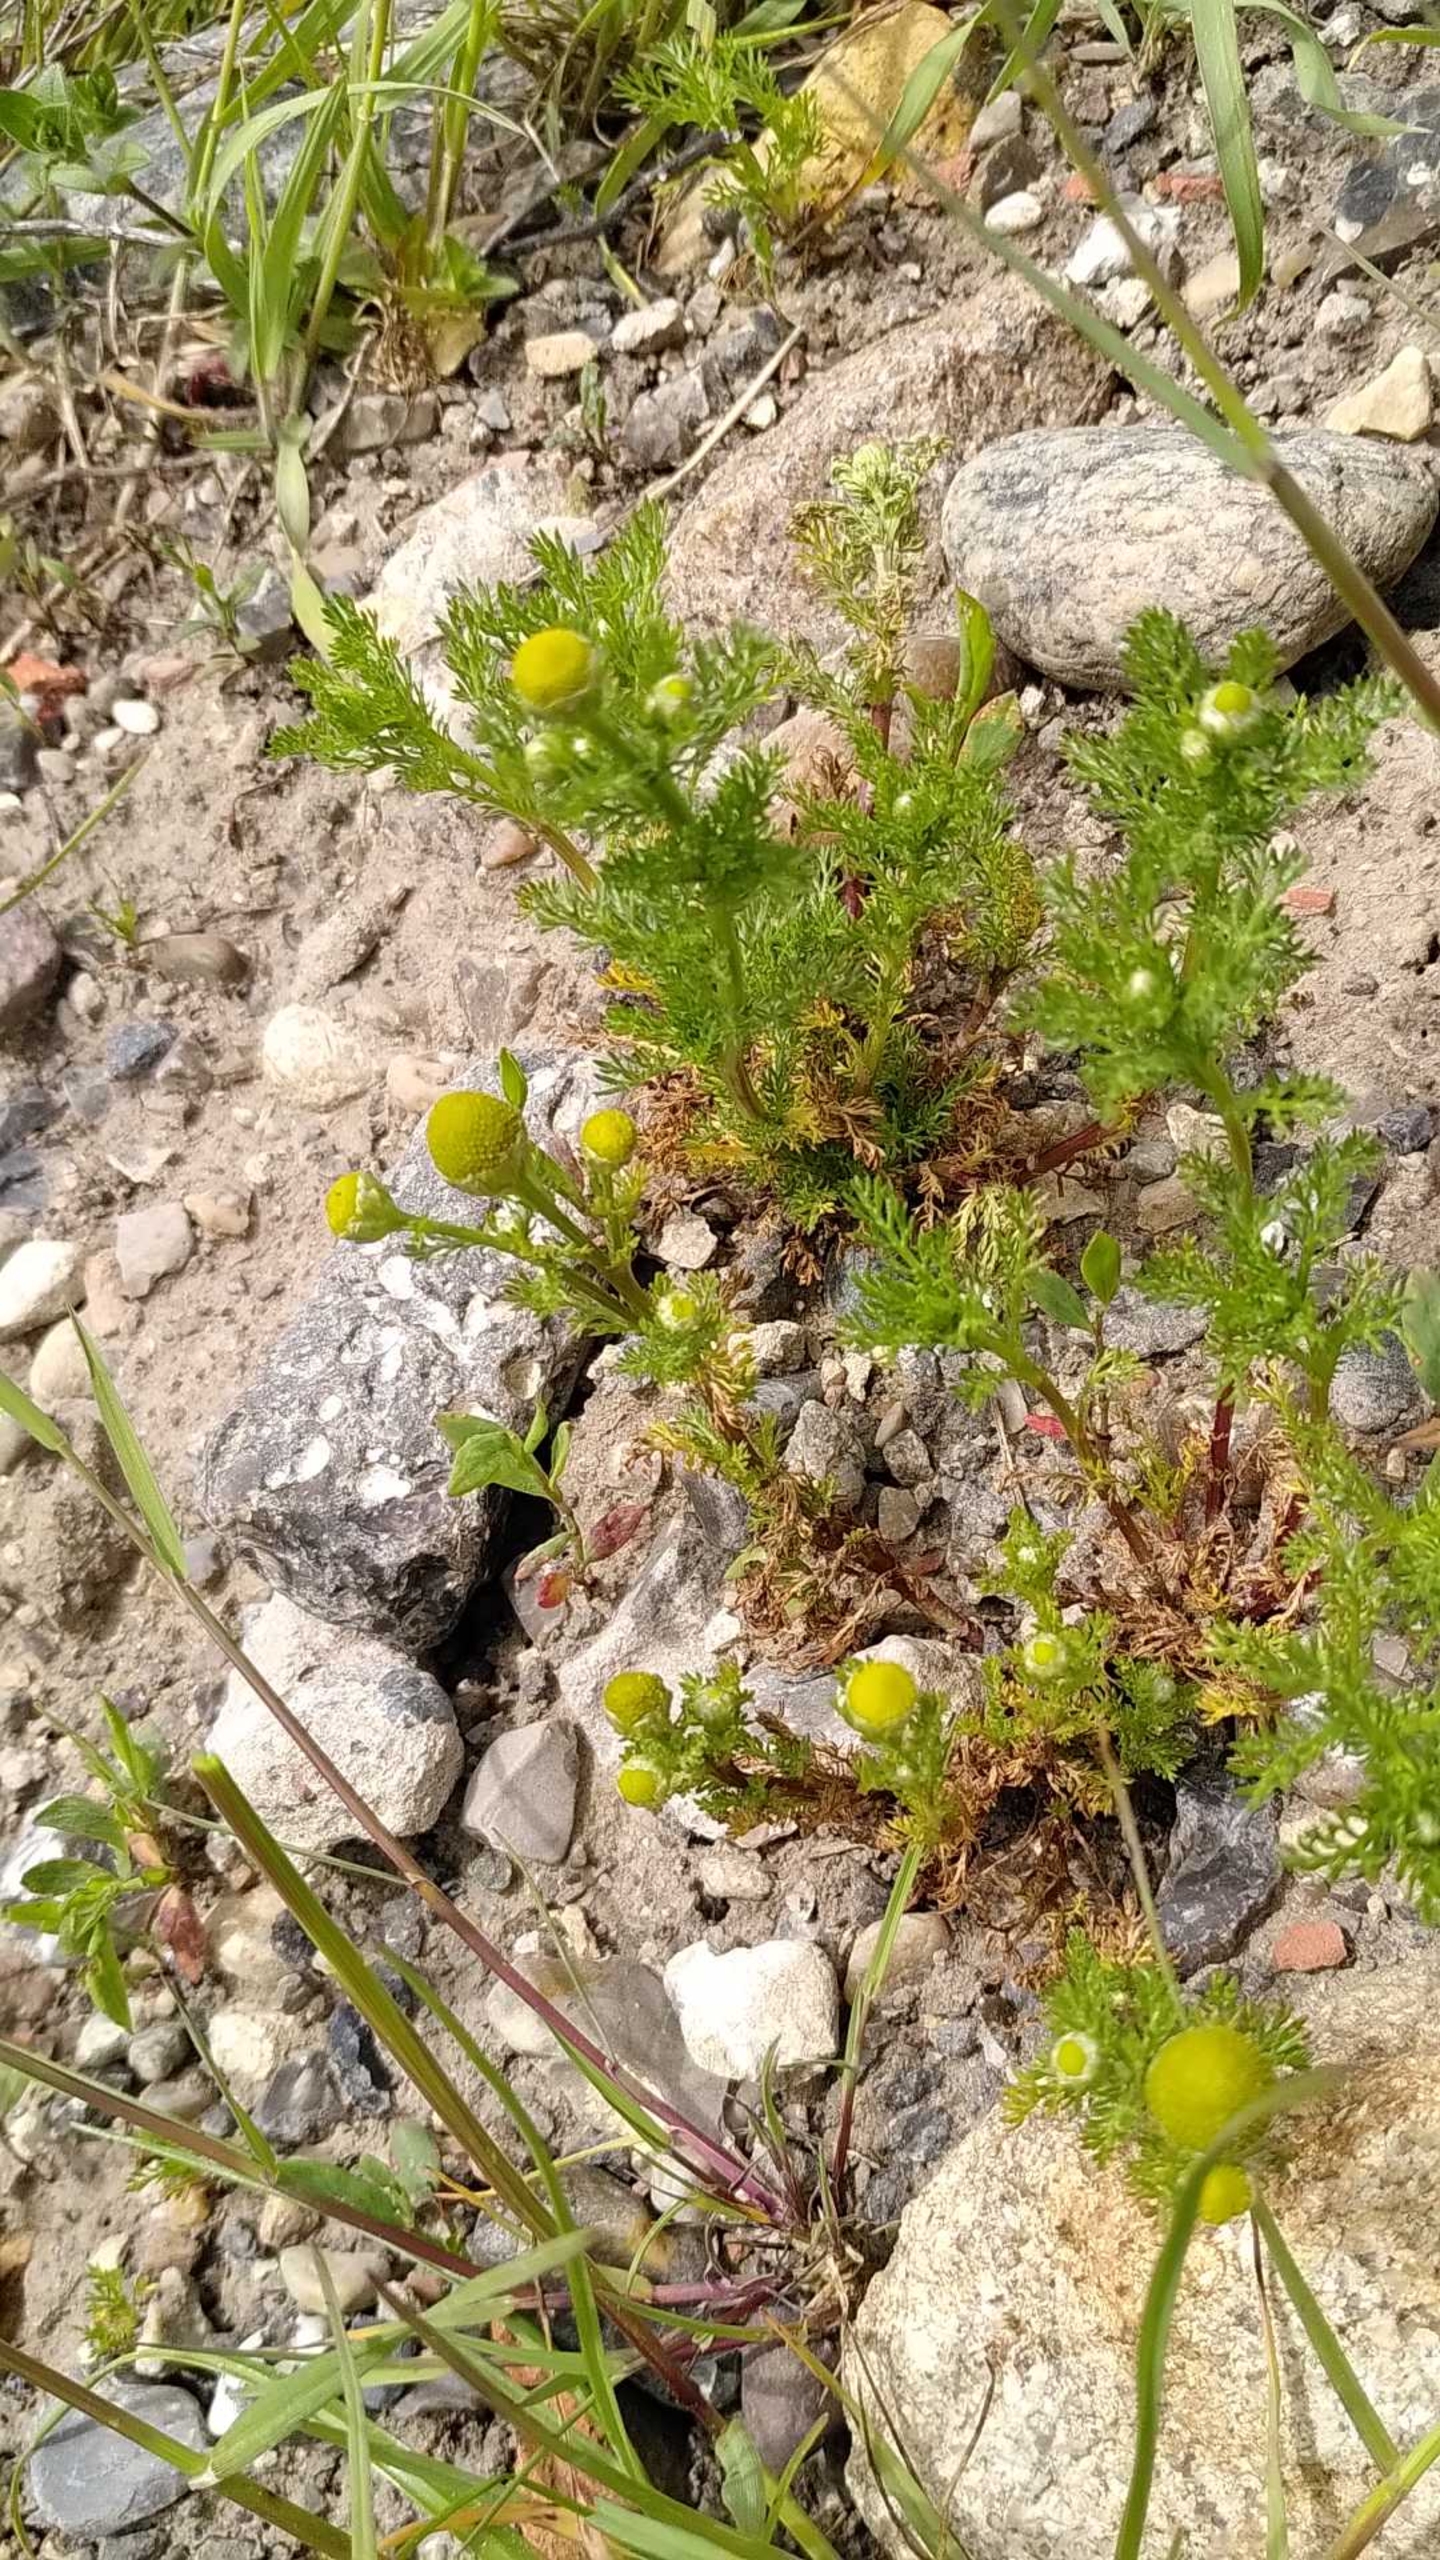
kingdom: Plantae
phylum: Tracheophyta
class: Magnoliopsida
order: Asterales
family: Asteraceae
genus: Matricaria
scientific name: Matricaria discoidea
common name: Skive-kamille
